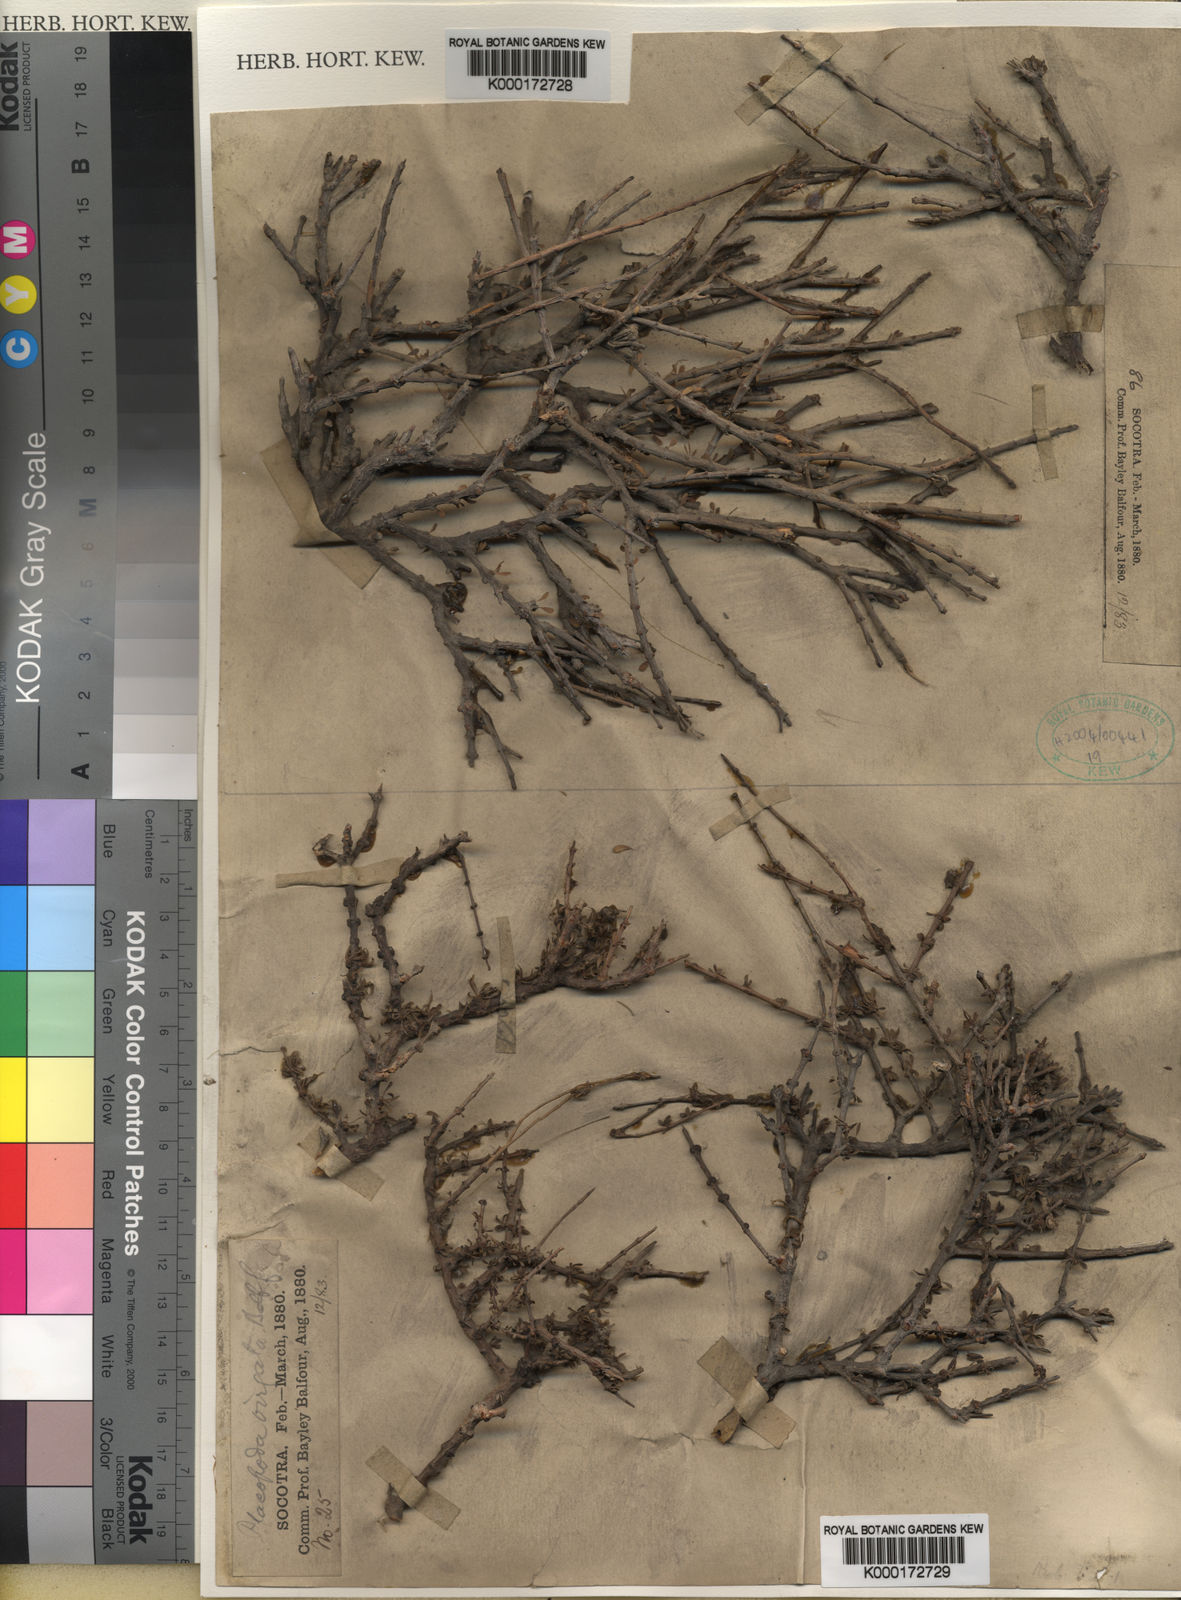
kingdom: Plantae
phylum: Tracheophyta
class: Magnoliopsida
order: Gentianales
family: Rubiaceae
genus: Dirichletia
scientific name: Dirichletia
